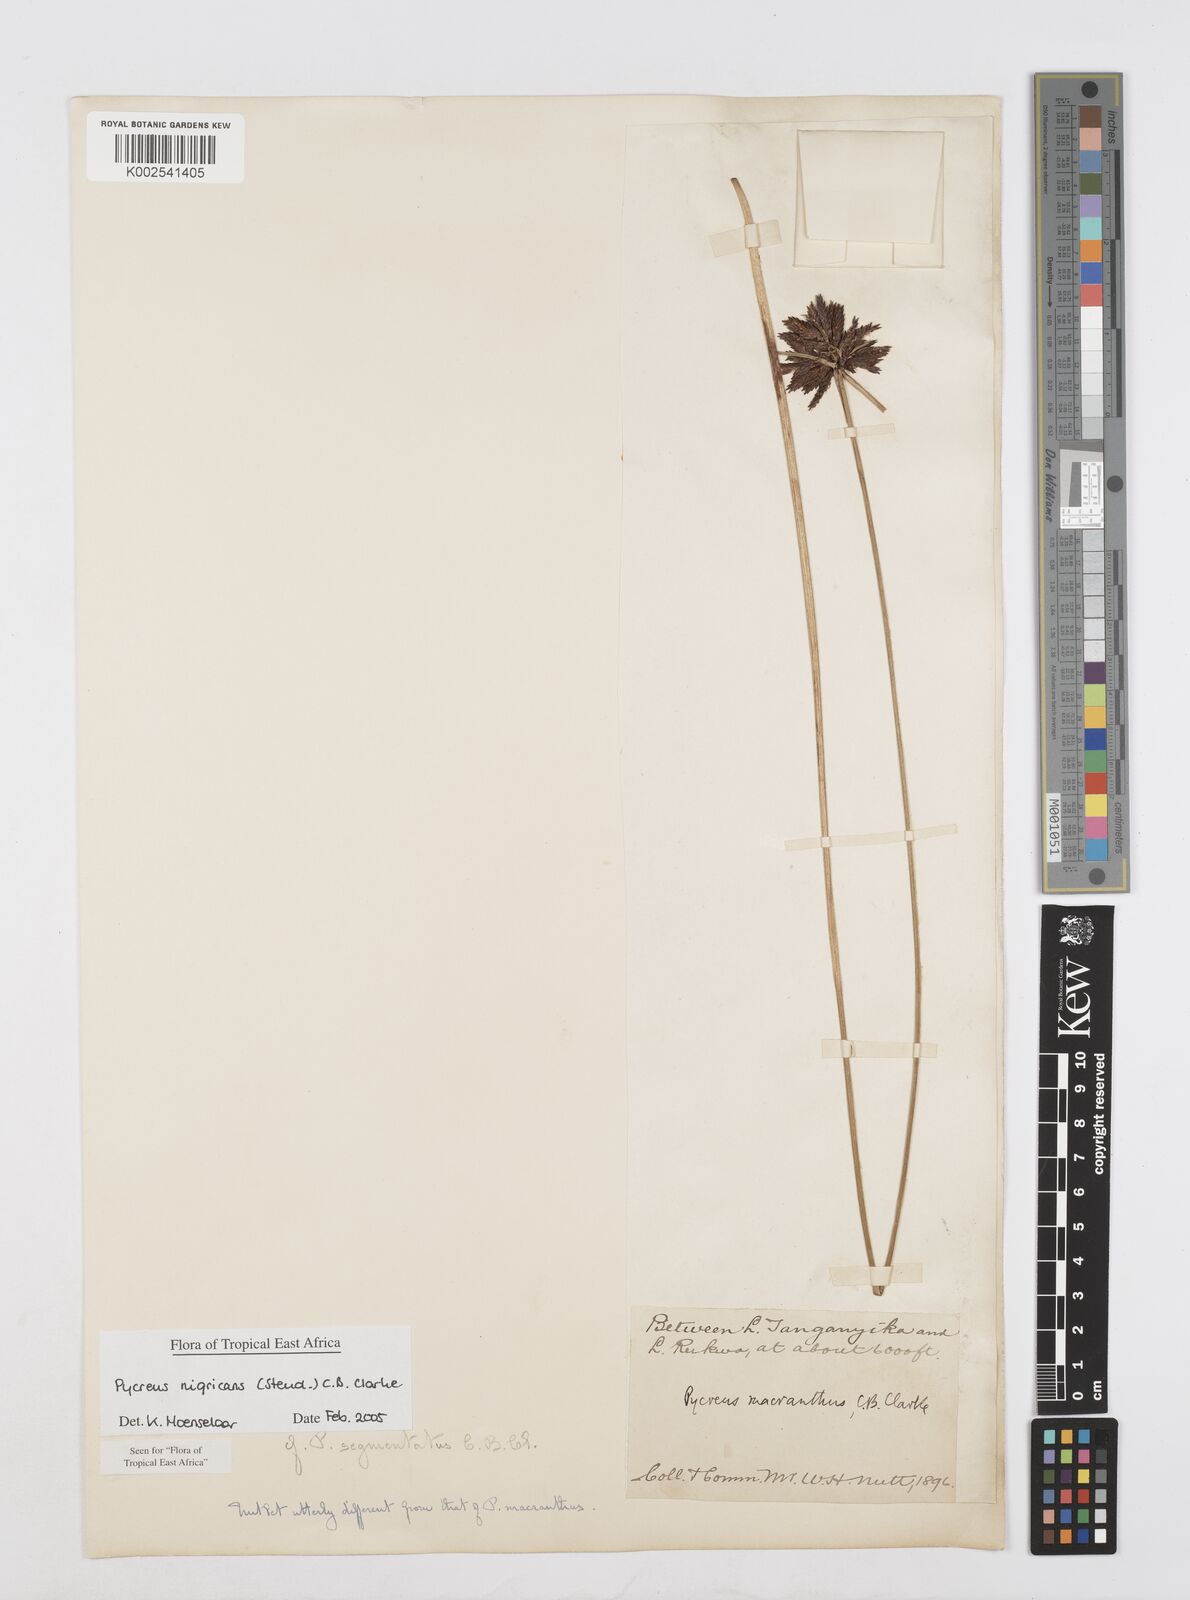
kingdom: Plantae
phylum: Tracheophyta
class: Liliopsida
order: Poales
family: Cyperaceae
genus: Cyperus
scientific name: Cyperus nigricans
